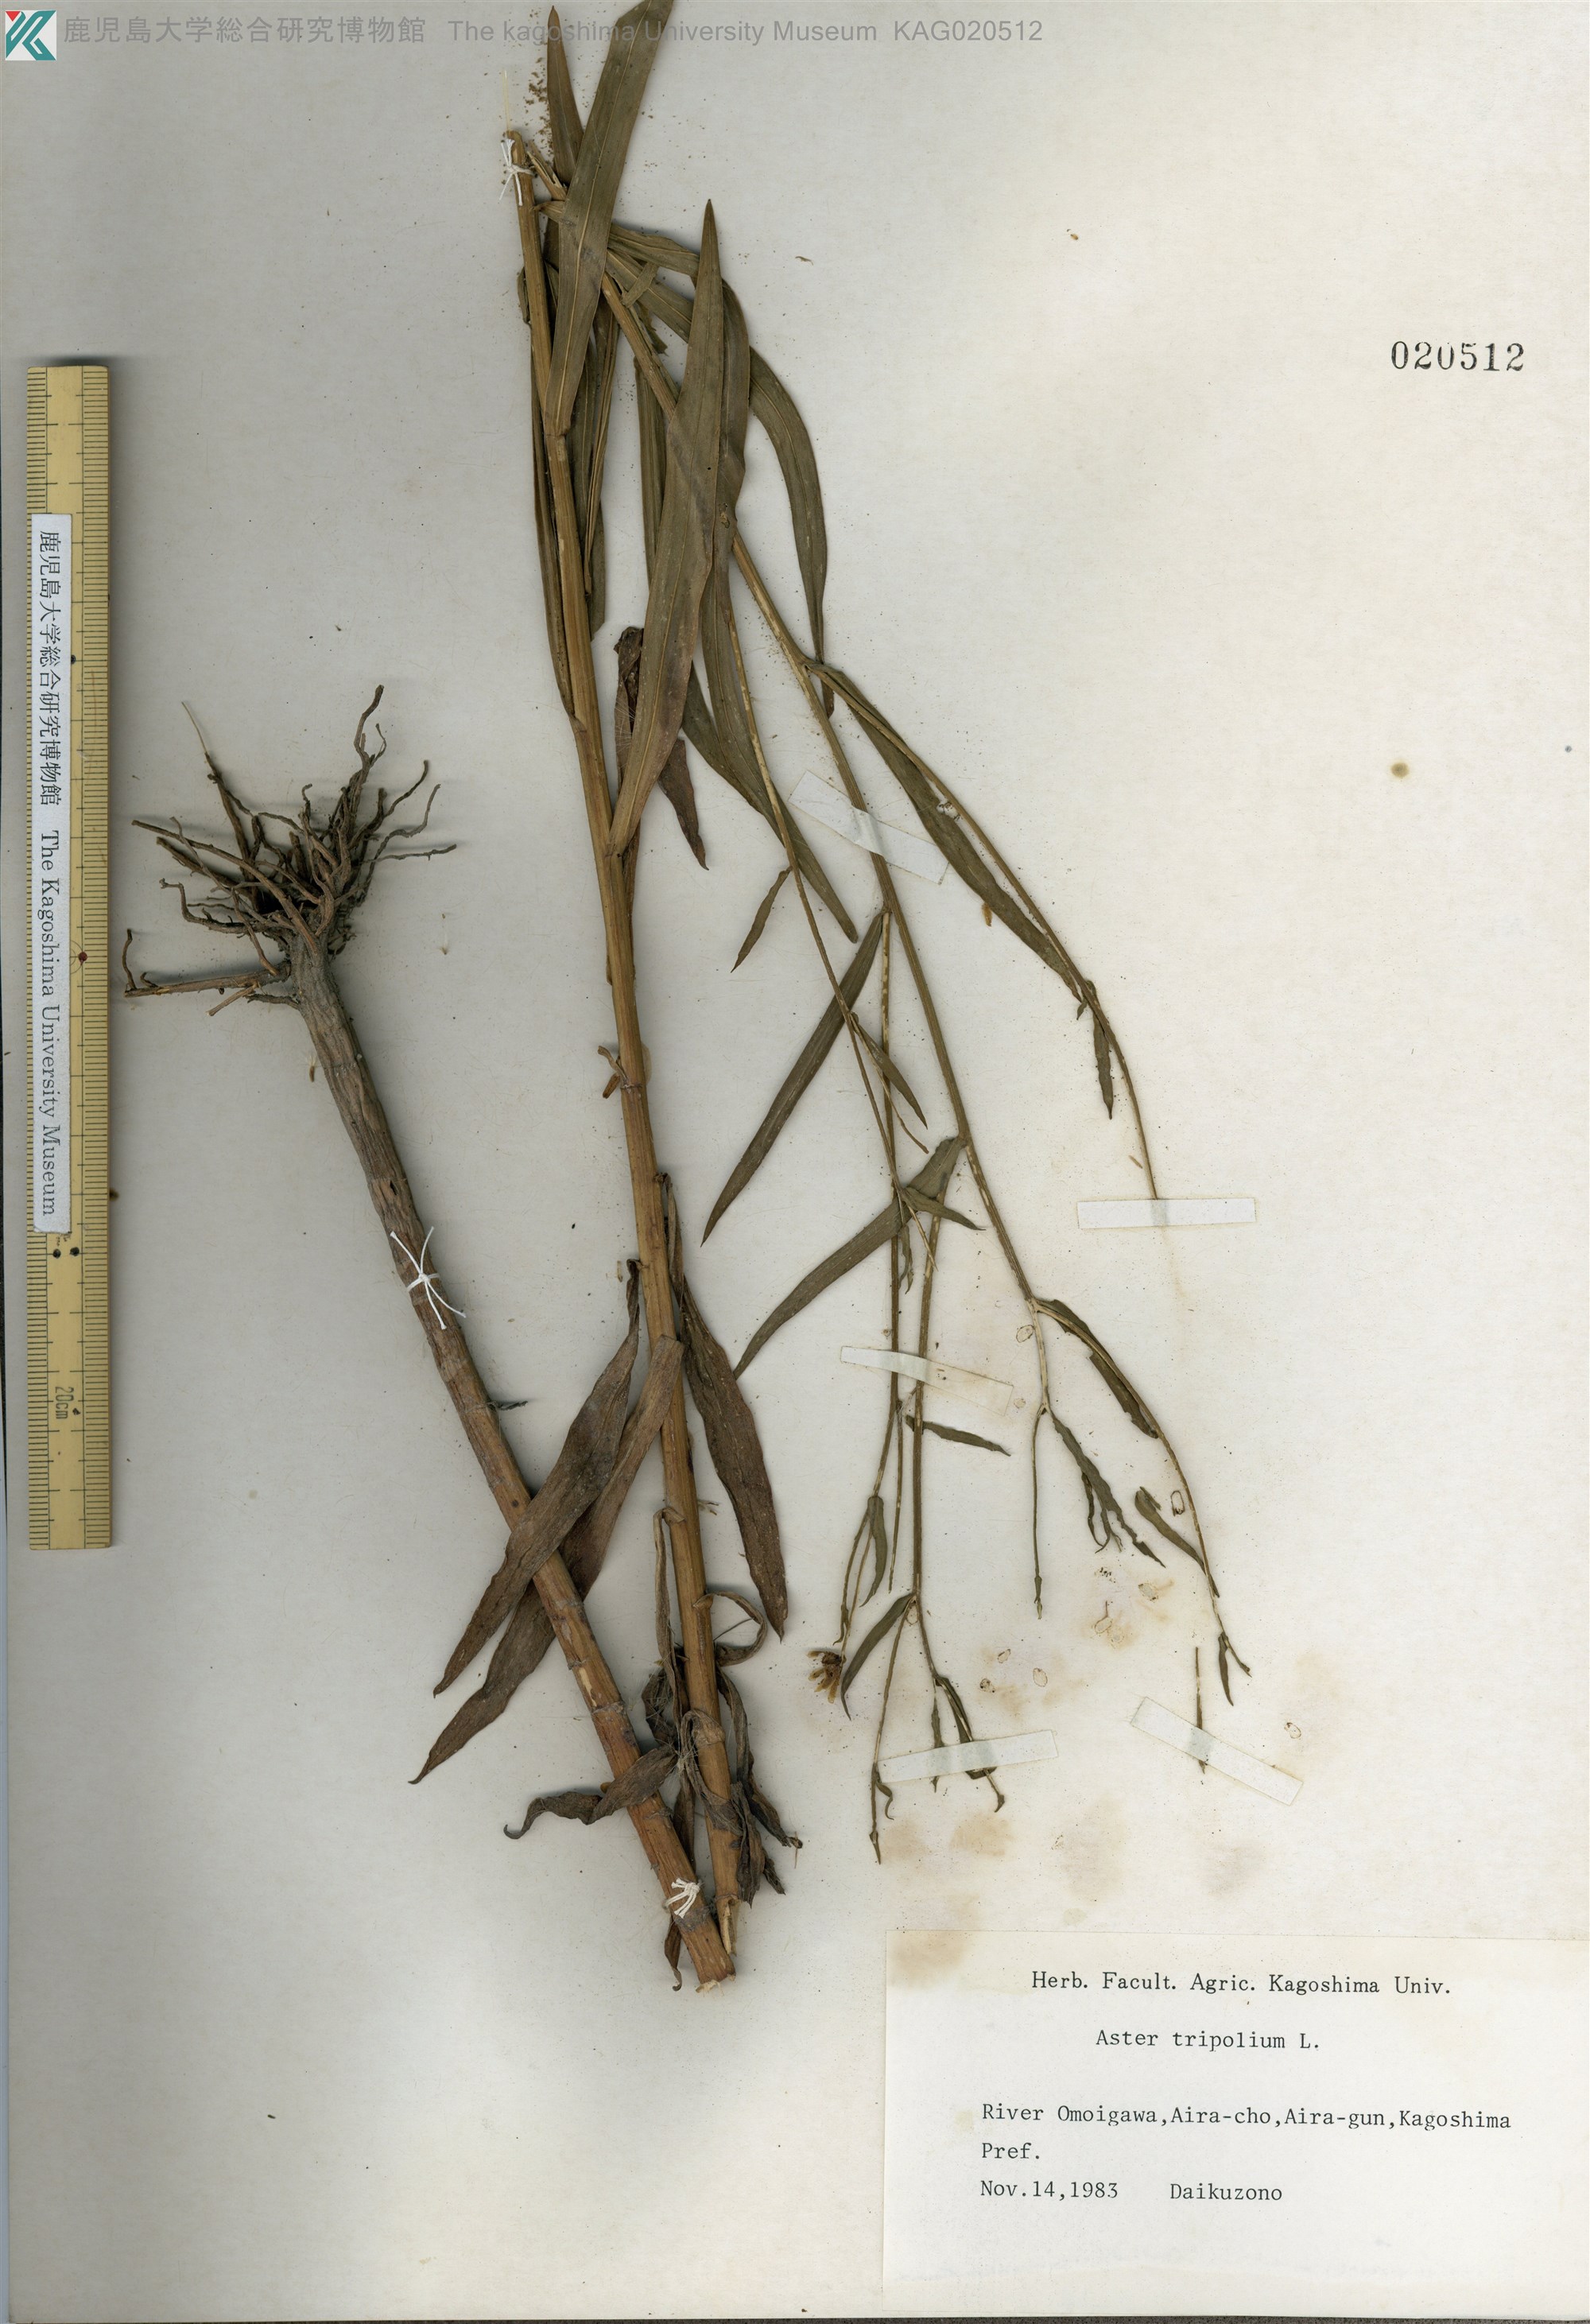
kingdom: Plantae
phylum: Tracheophyta
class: Magnoliopsida
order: Asterales
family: Asteraceae
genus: Tripolium
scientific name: Tripolium pannonicum
